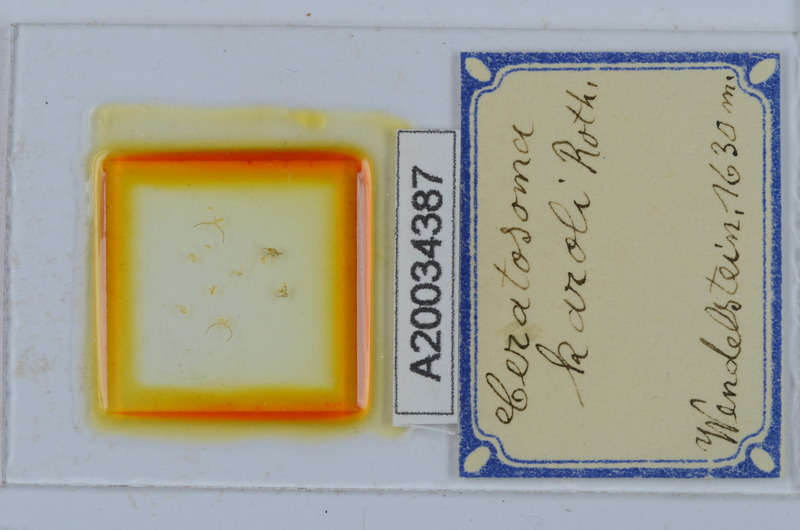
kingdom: Animalia
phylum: Arthropoda
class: Diplopoda
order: Chordeumatida
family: Craspedosomatidae
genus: Ochogona
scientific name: Ochogona caroli
